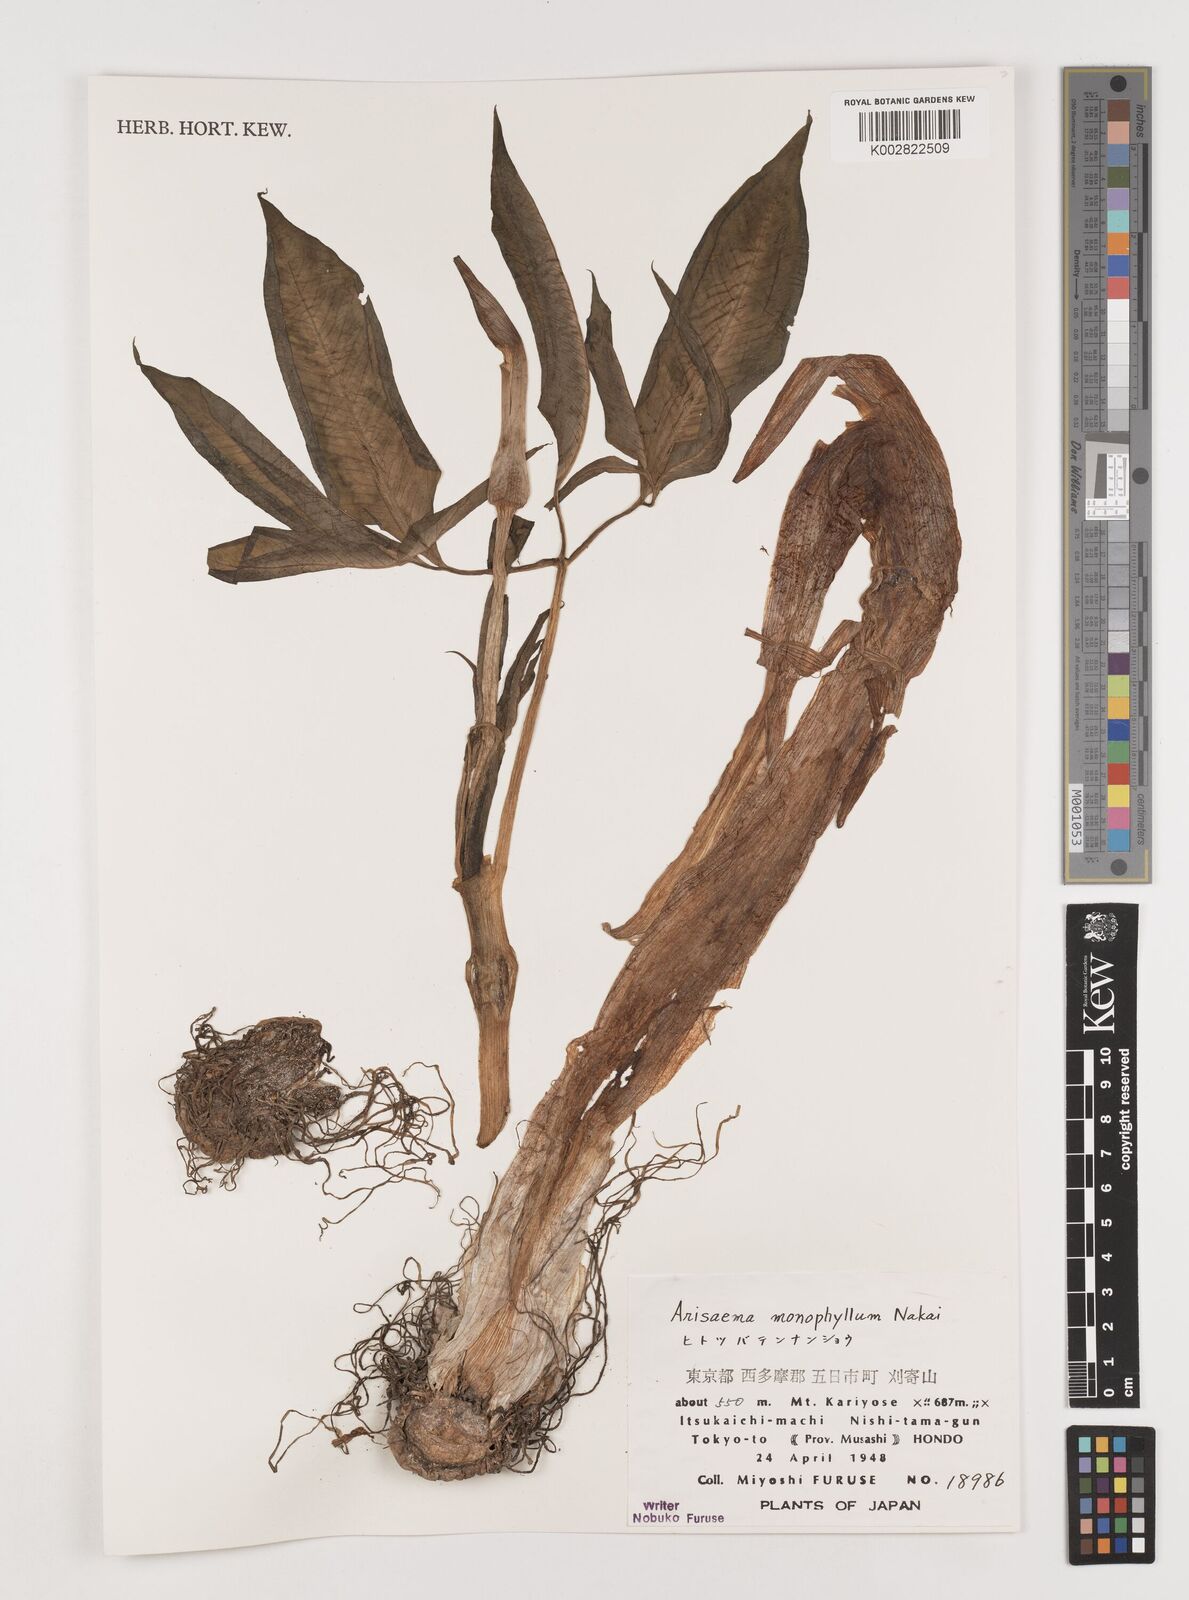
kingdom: Plantae
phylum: Tracheophyta
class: Liliopsida
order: Alismatales
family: Araceae
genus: Arisaema
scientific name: Arisaema monophyllum
